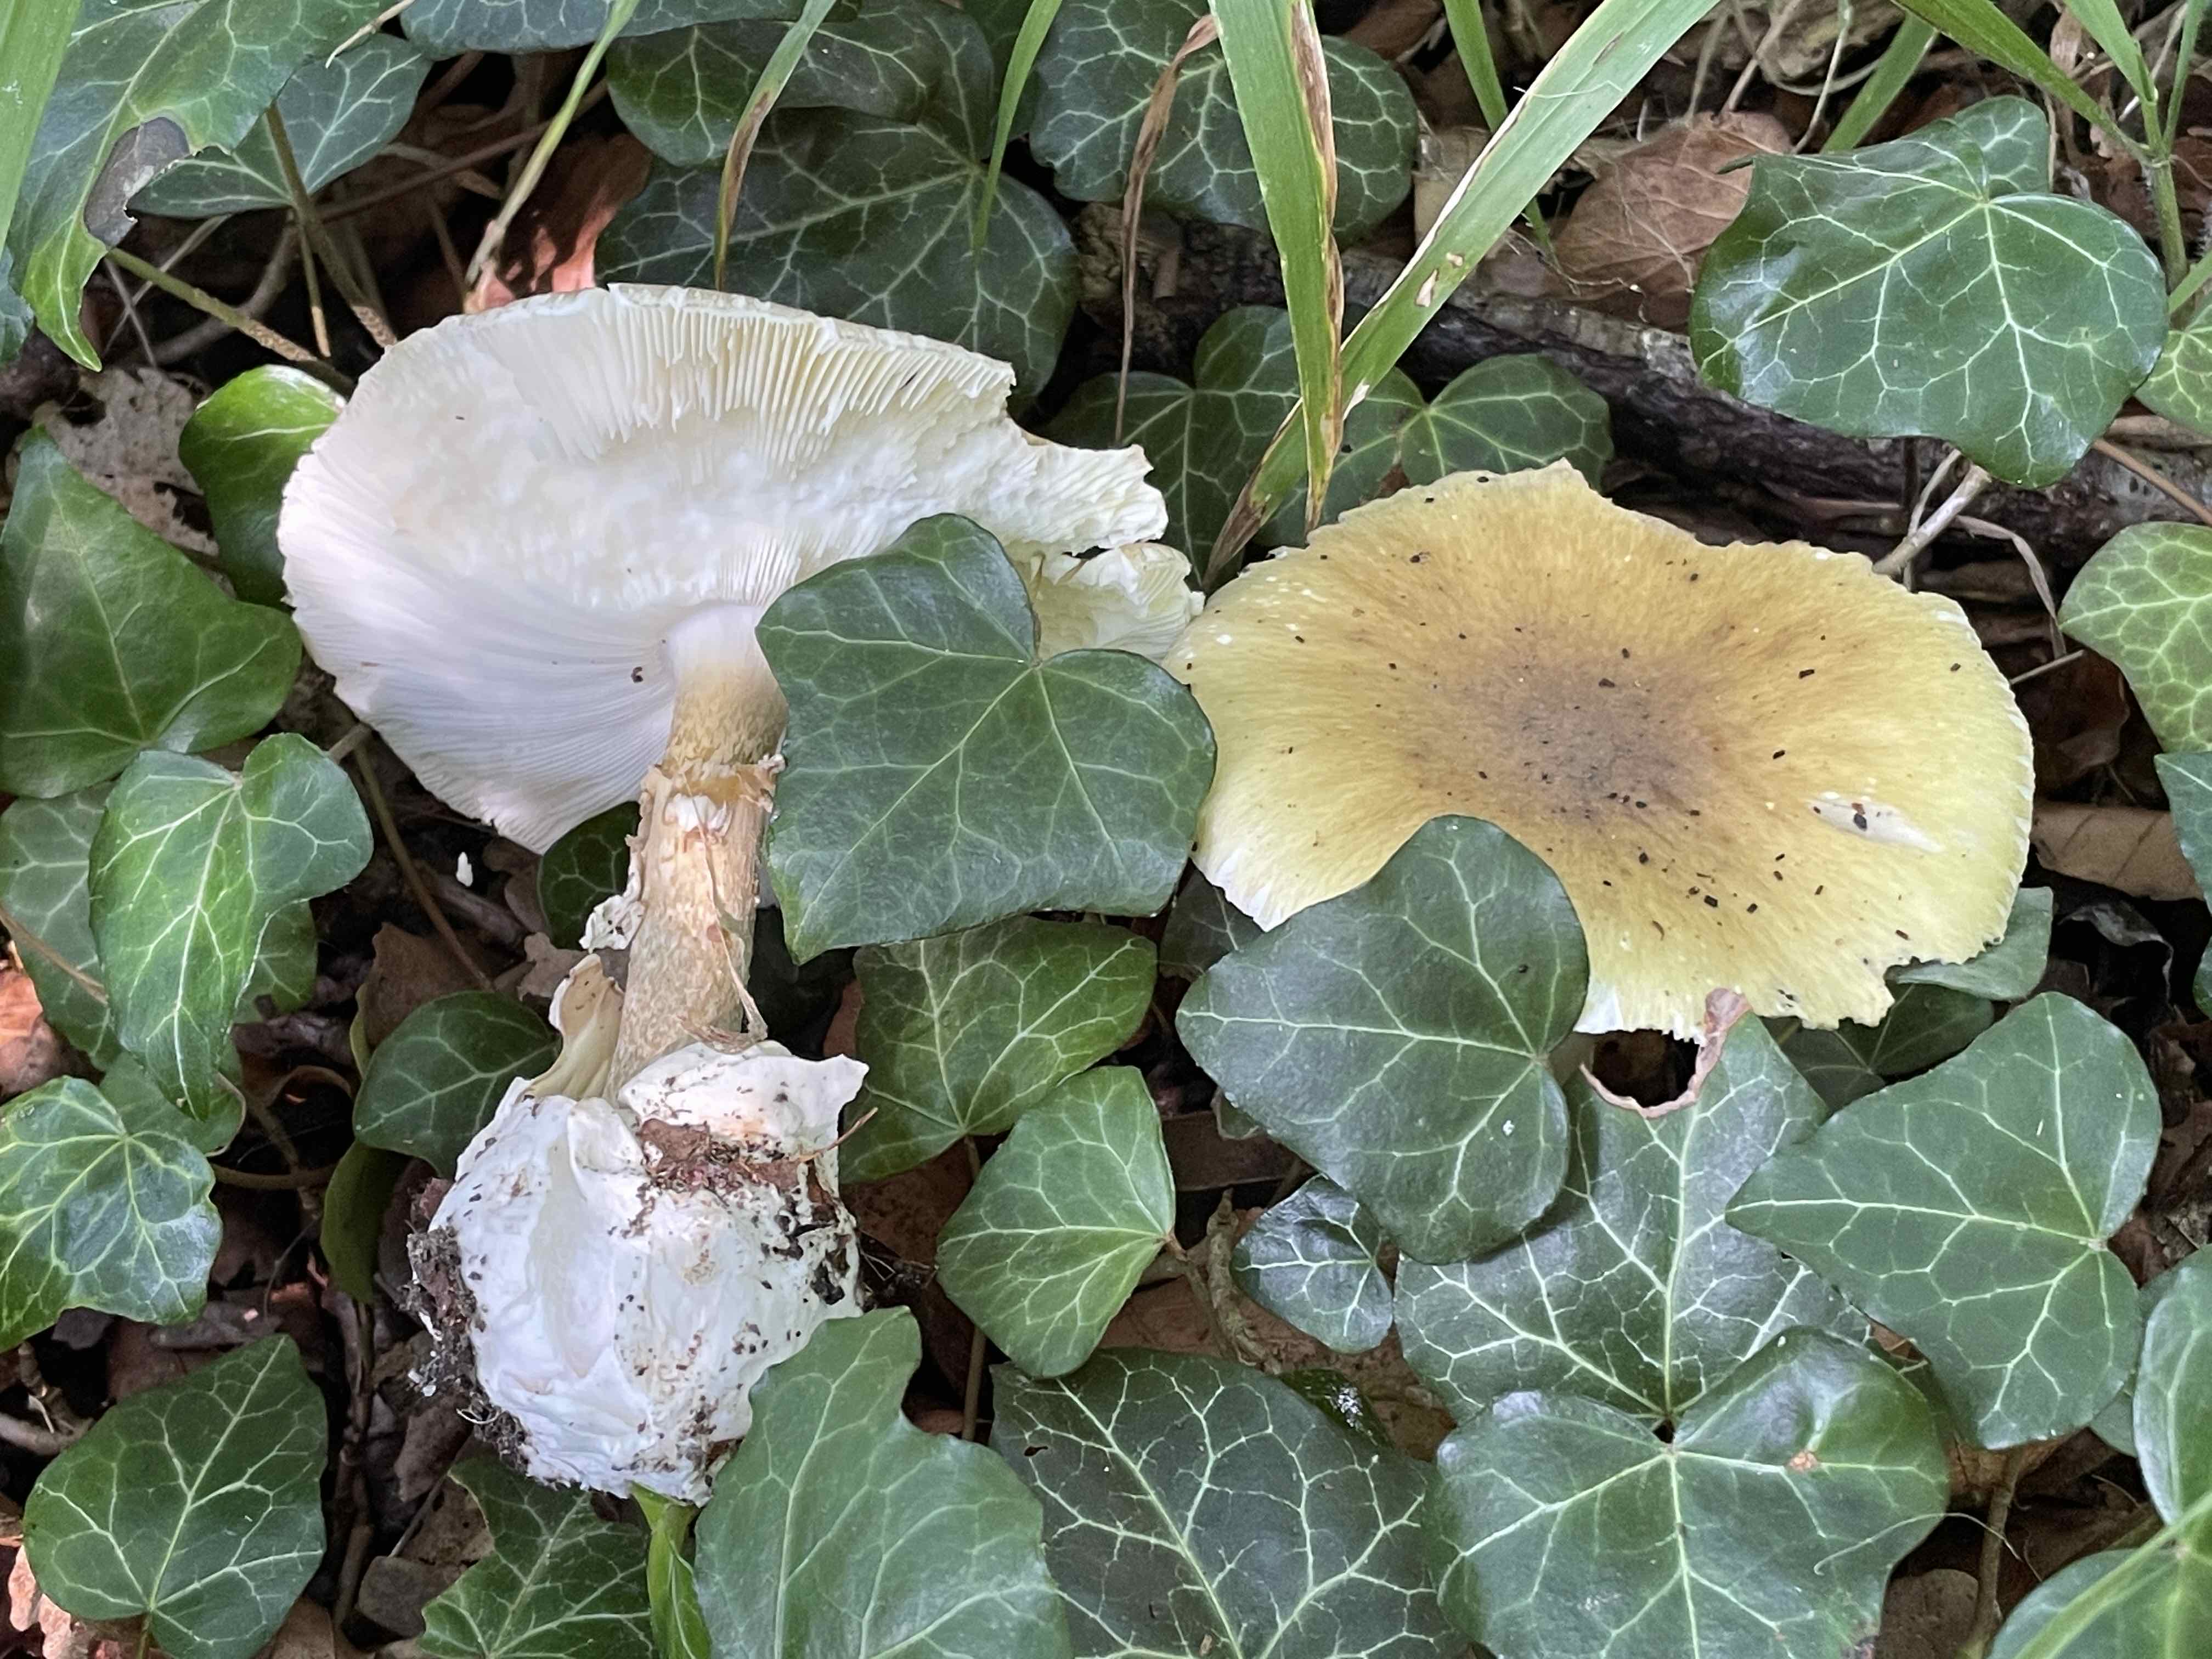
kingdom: Fungi
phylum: Basidiomycota
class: Agaricomycetes
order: Agaricales
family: Amanitaceae
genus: Amanita
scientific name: Amanita phalloides
